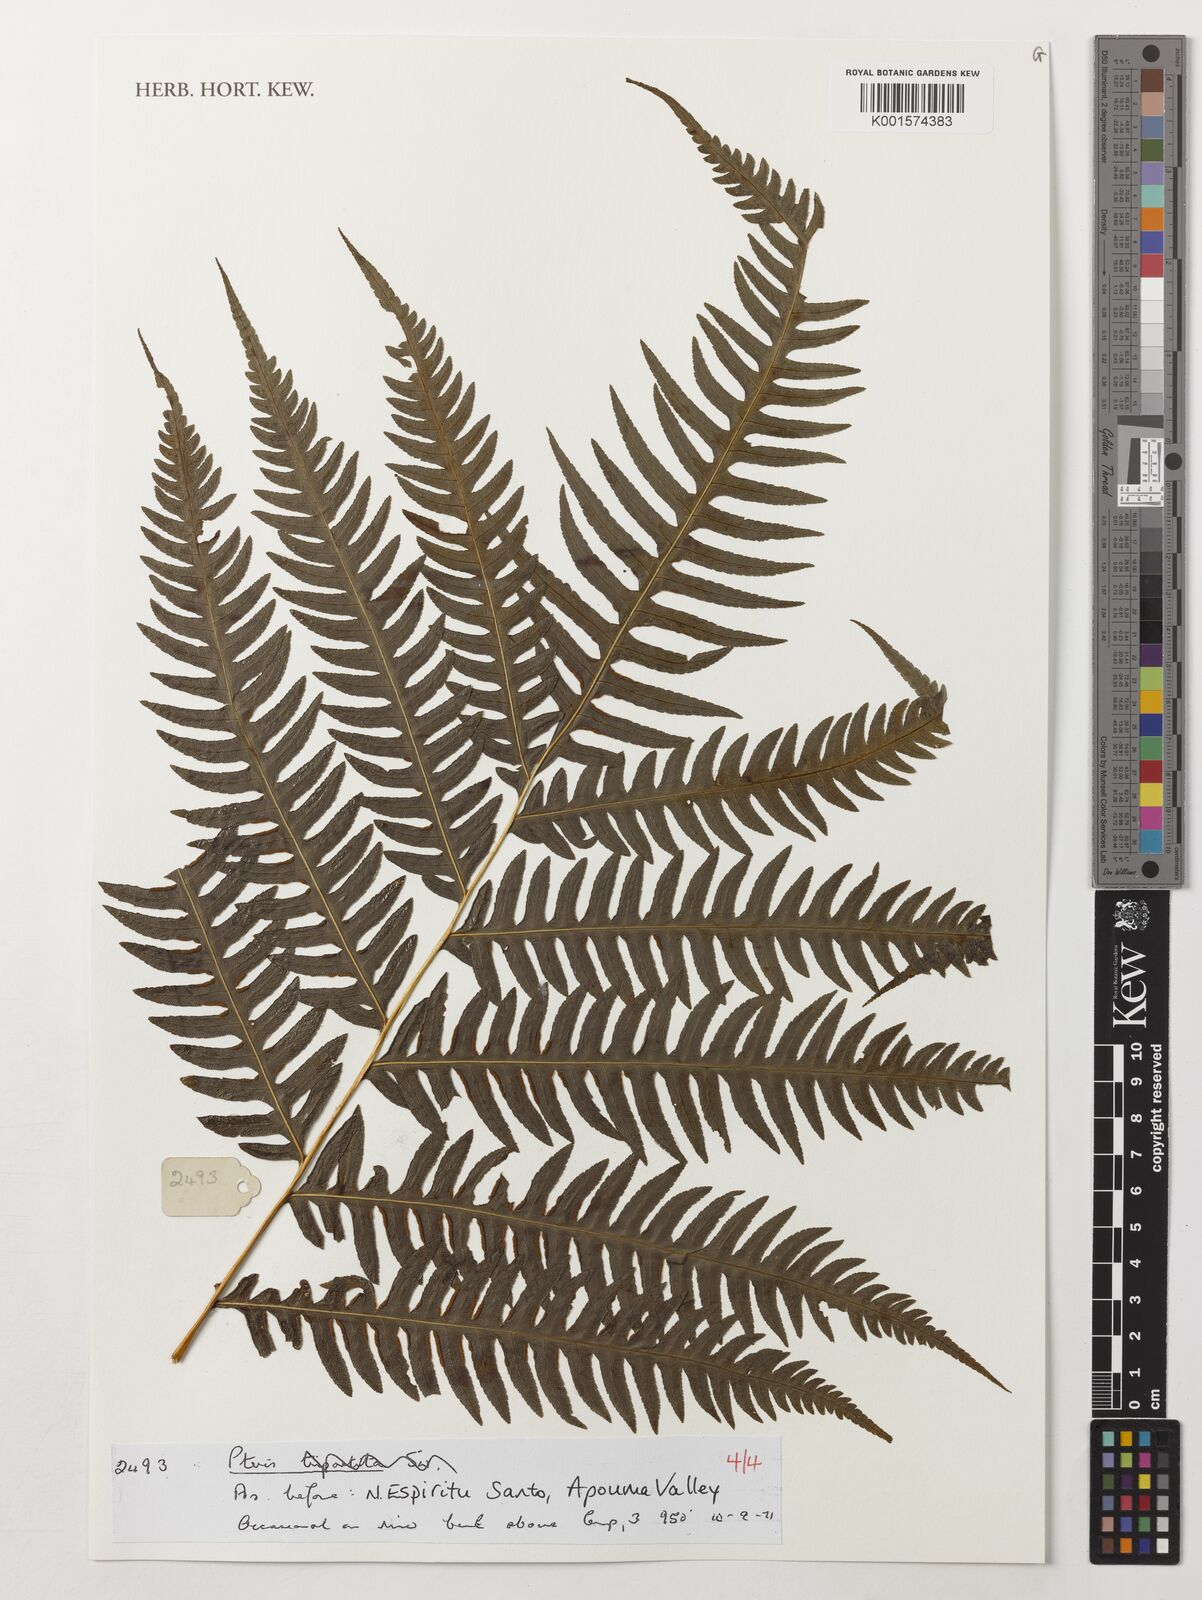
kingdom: Plantae
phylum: Tracheophyta
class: Polypodiopsida
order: Polypodiales
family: Pteridaceae
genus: Pteris
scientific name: Pteris
